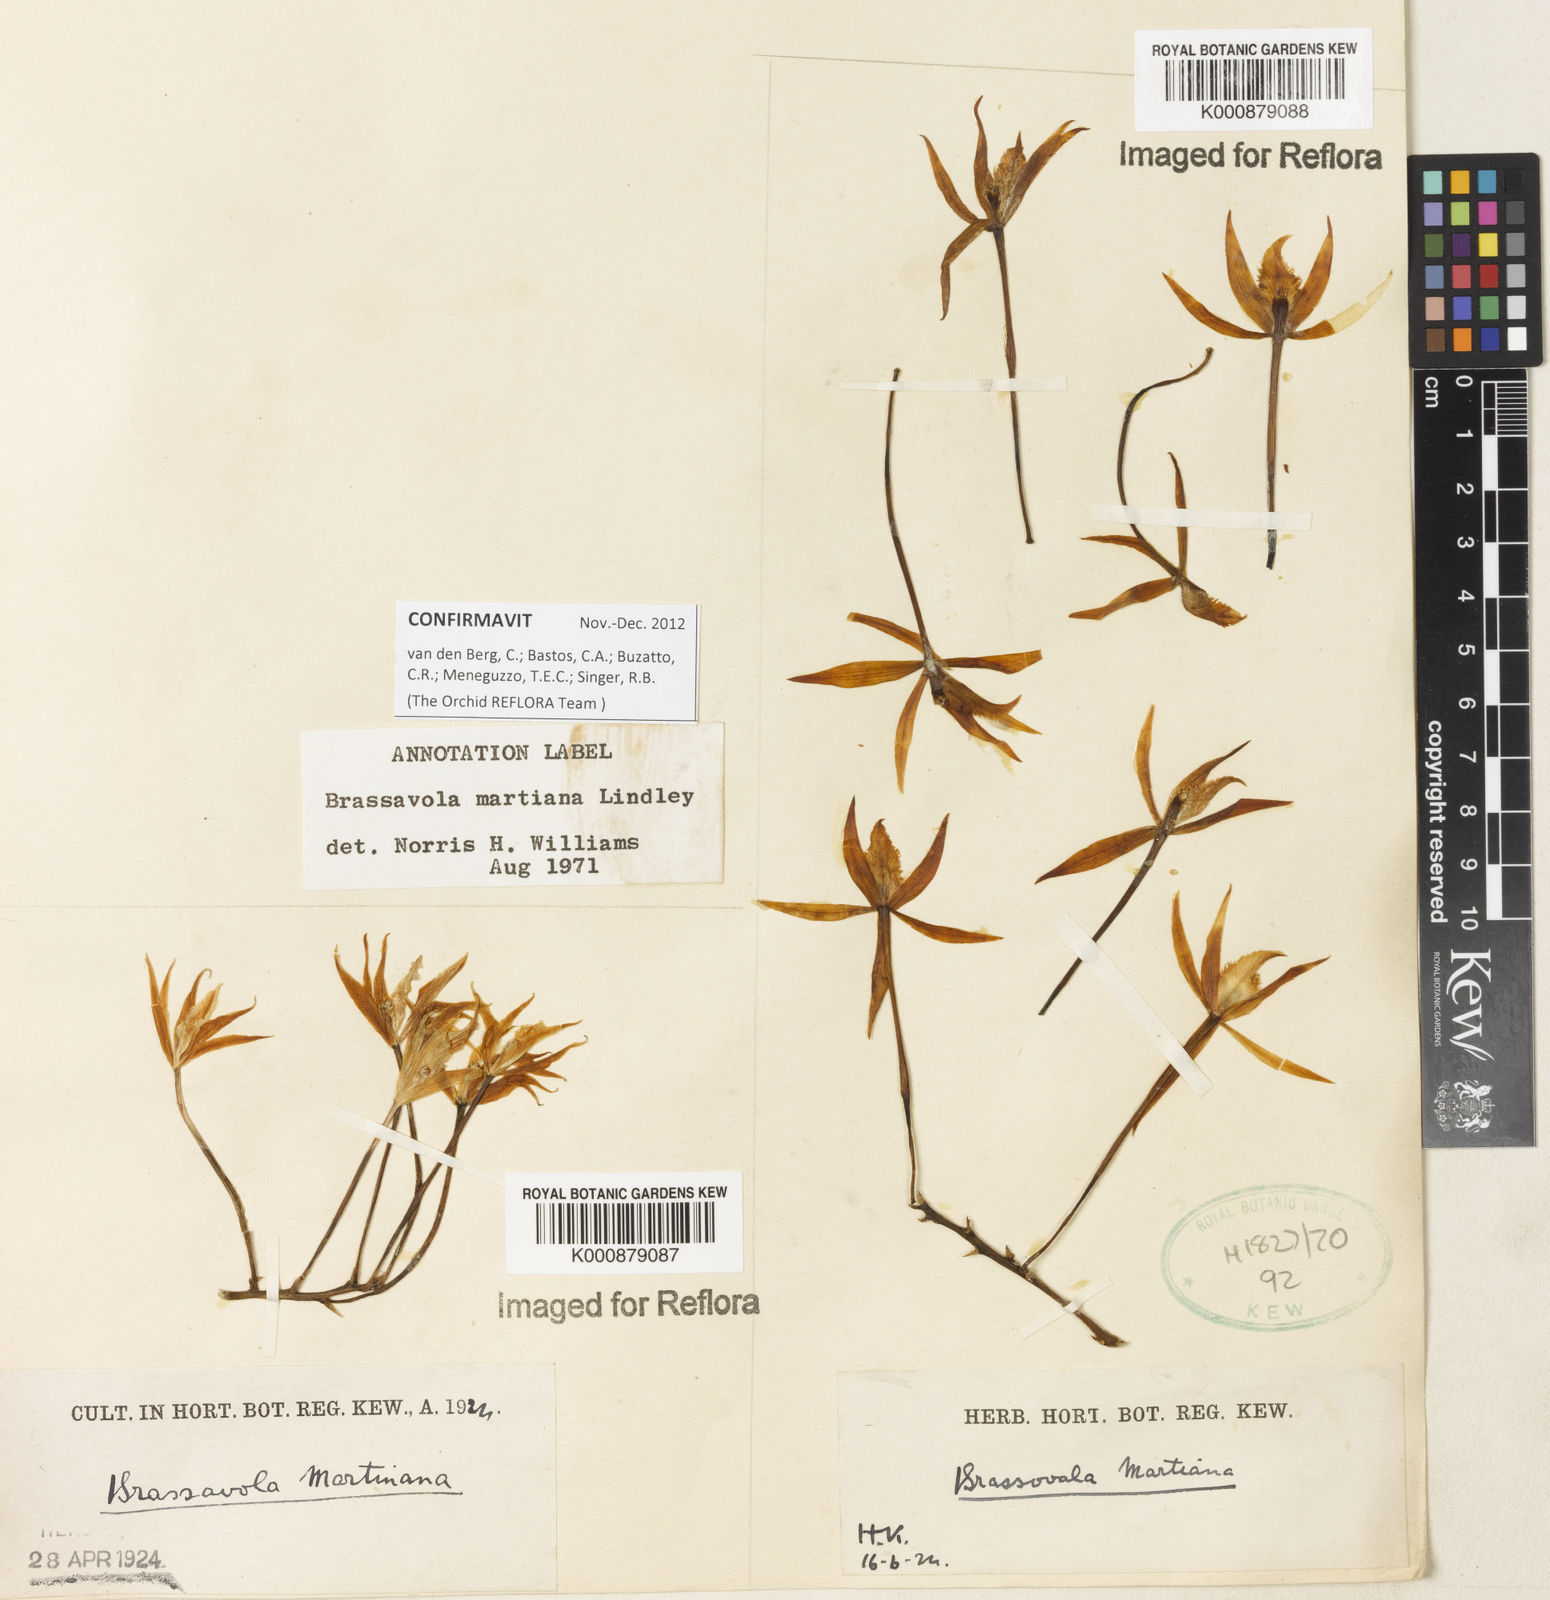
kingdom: Plantae
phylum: Tracheophyta
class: Liliopsida
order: Asparagales
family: Orchidaceae
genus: Brassavola
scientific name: Brassavola martiana
